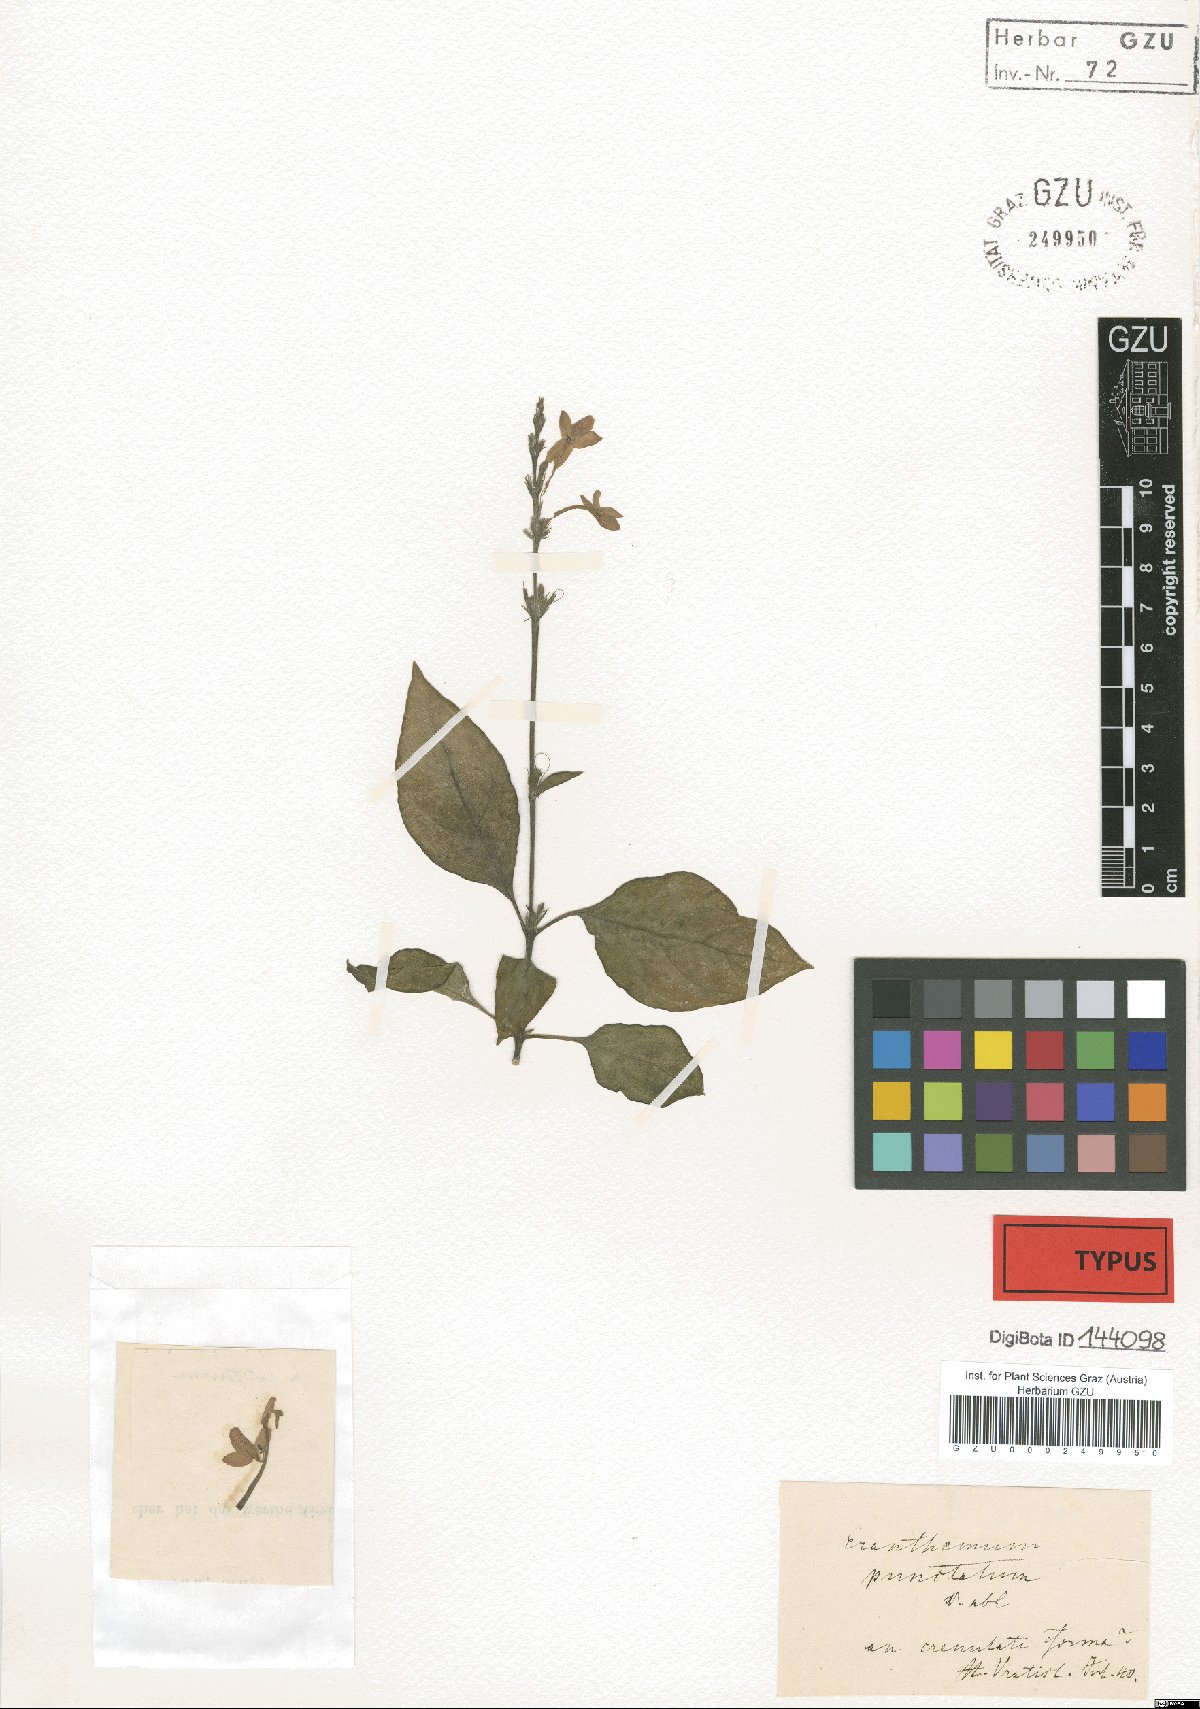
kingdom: Plantae
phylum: Tracheophyta
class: Magnoliopsida
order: Lamiales
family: Acanthaceae
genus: Pseuderanthemum
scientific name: Pseuderanthemum graciliflorum
